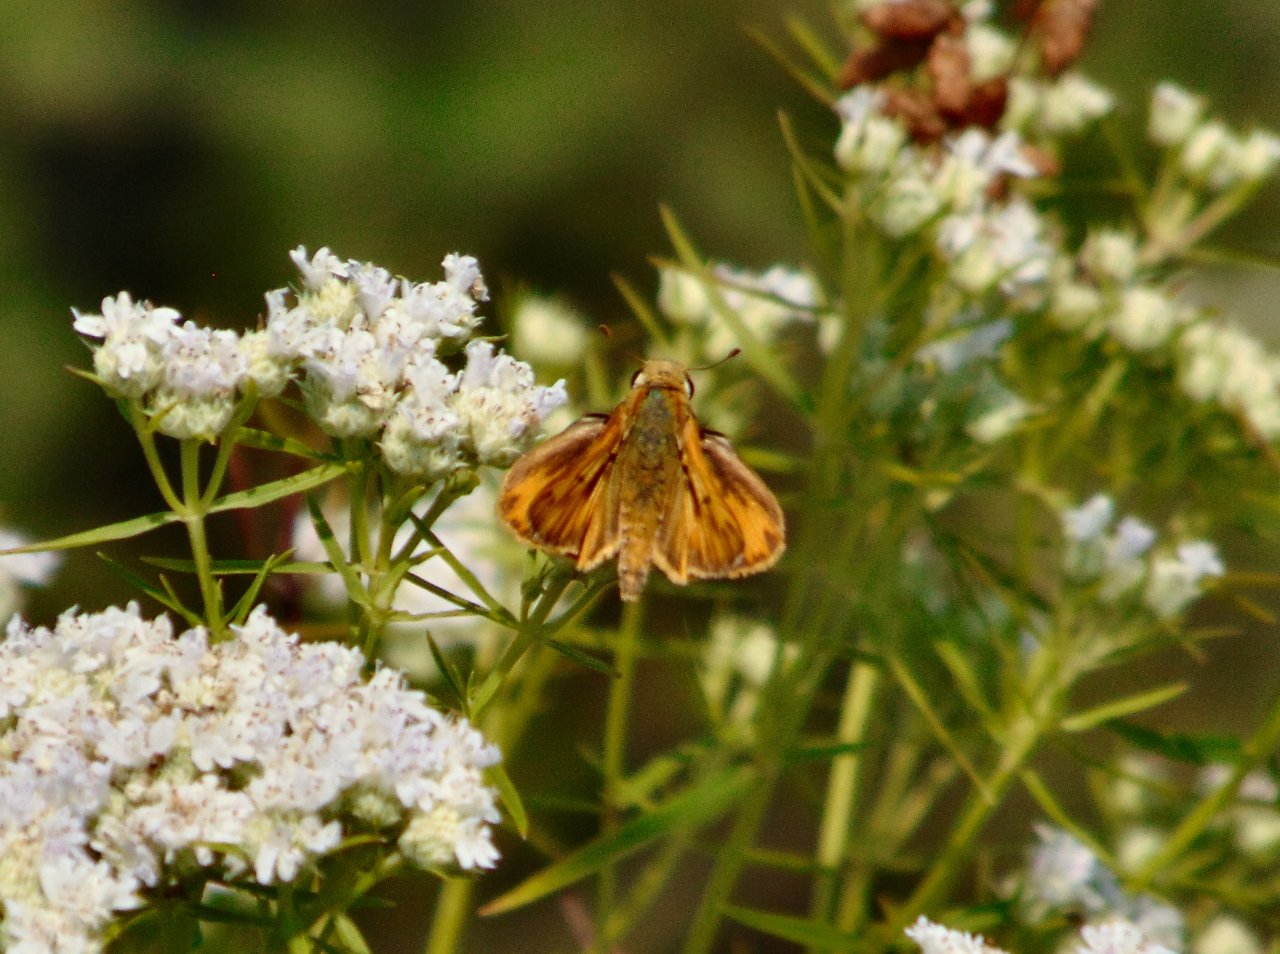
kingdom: Animalia
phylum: Arthropoda
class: Insecta
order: Lepidoptera
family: Hesperiidae
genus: Hylephila
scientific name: Hylephila phyleus
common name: Fiery Skipper
